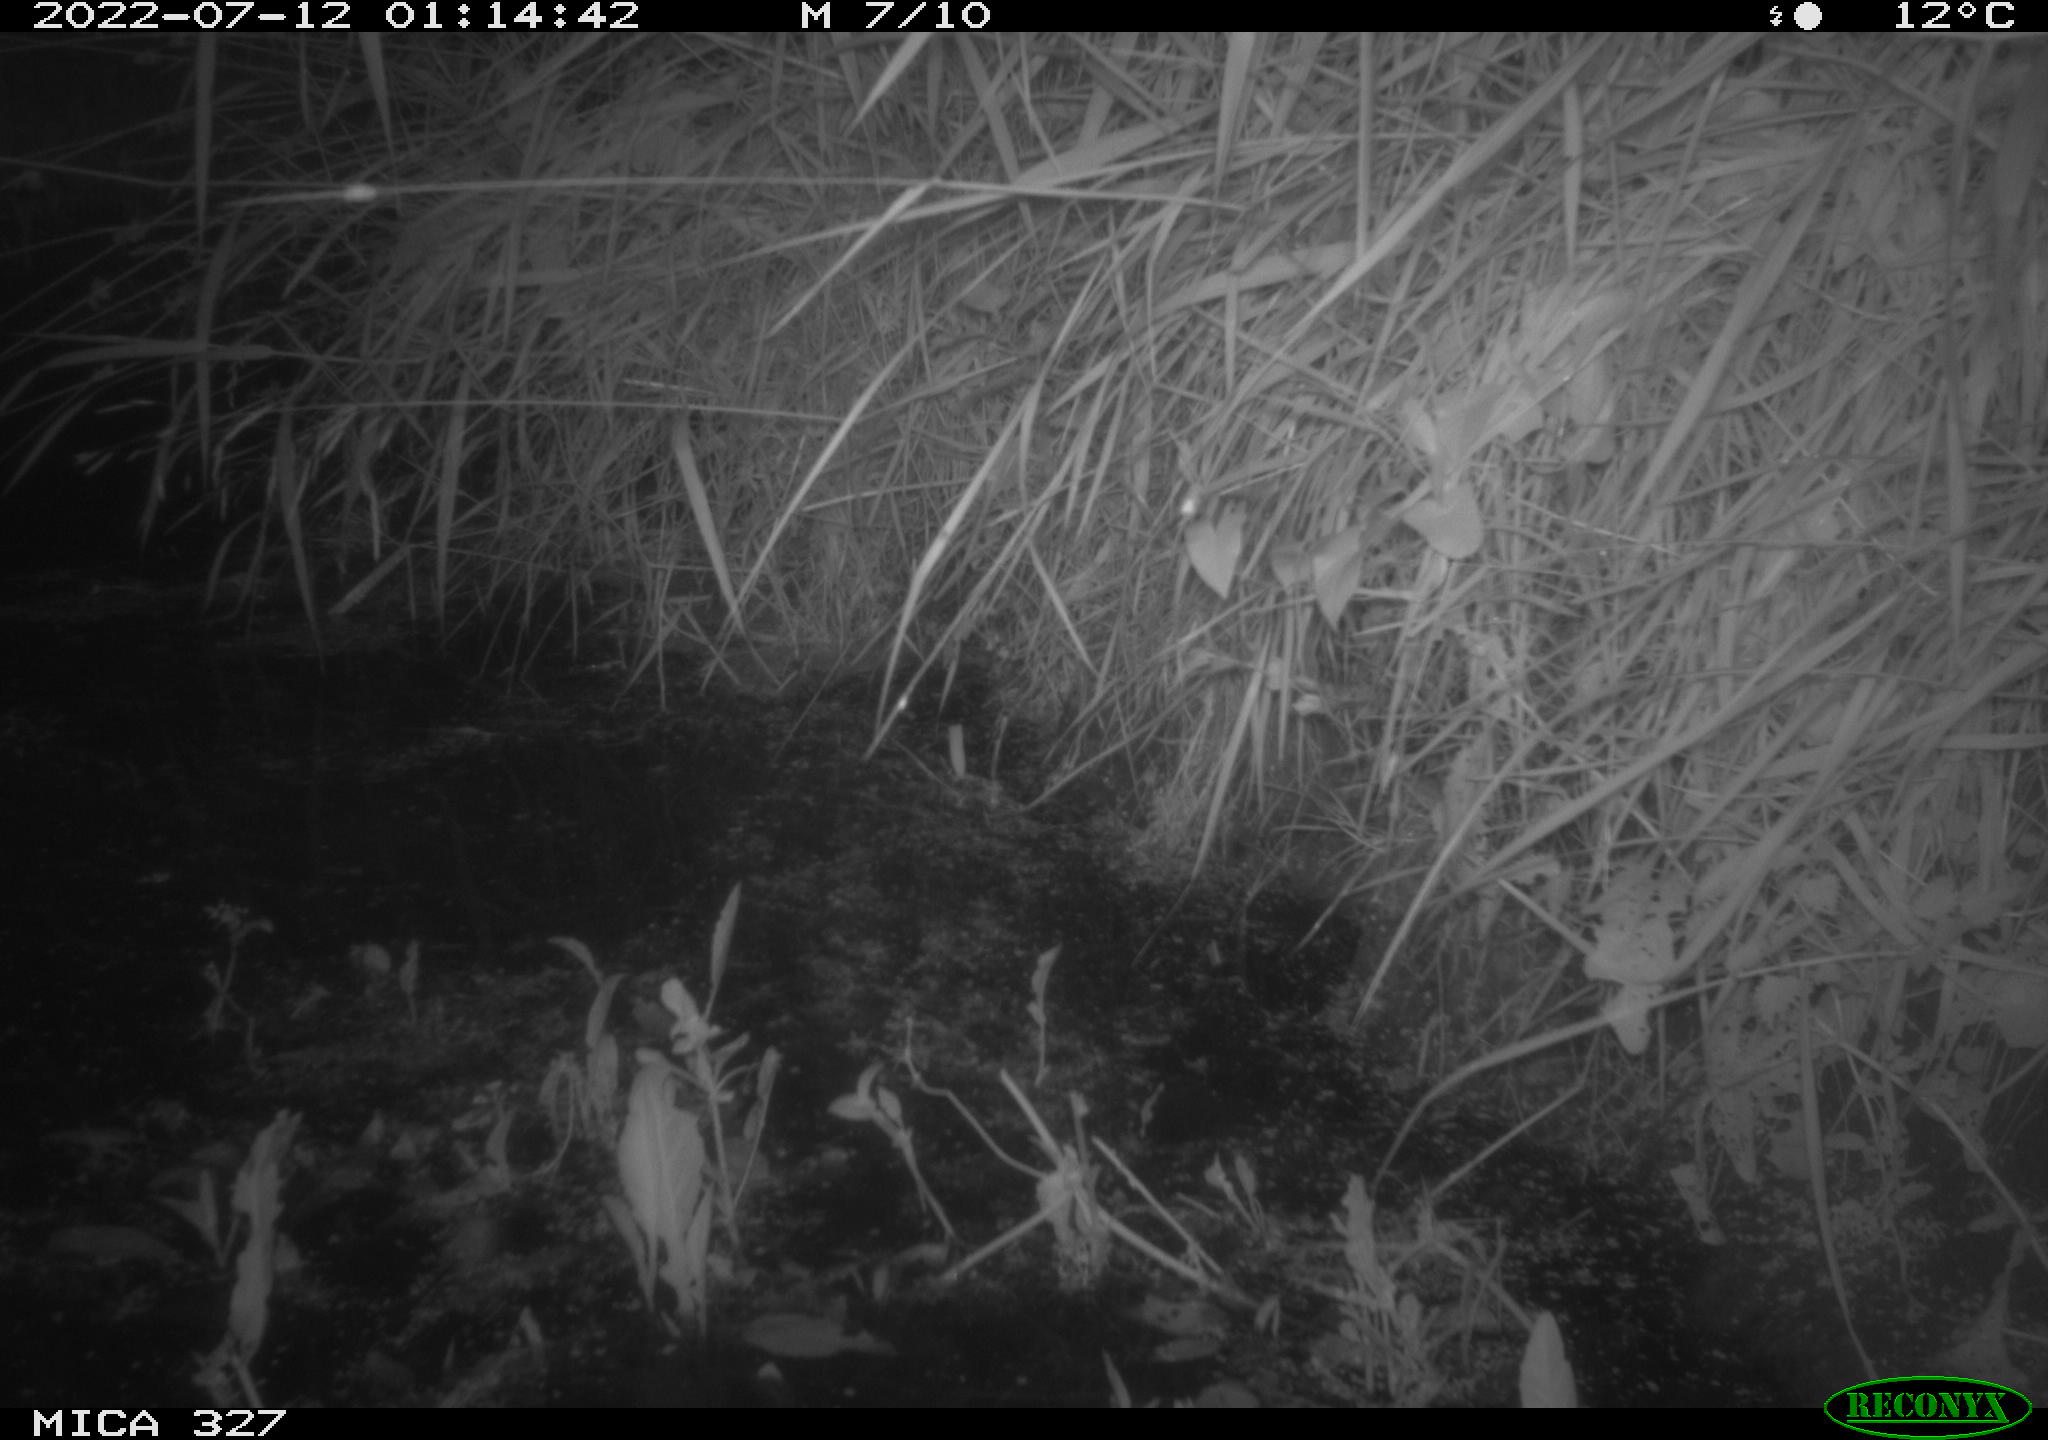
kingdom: Animalia
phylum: Chordata
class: Mammalia
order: Rodentia
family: Muridae
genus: Rattus
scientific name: Rattus norvegicus
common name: Brown rat
